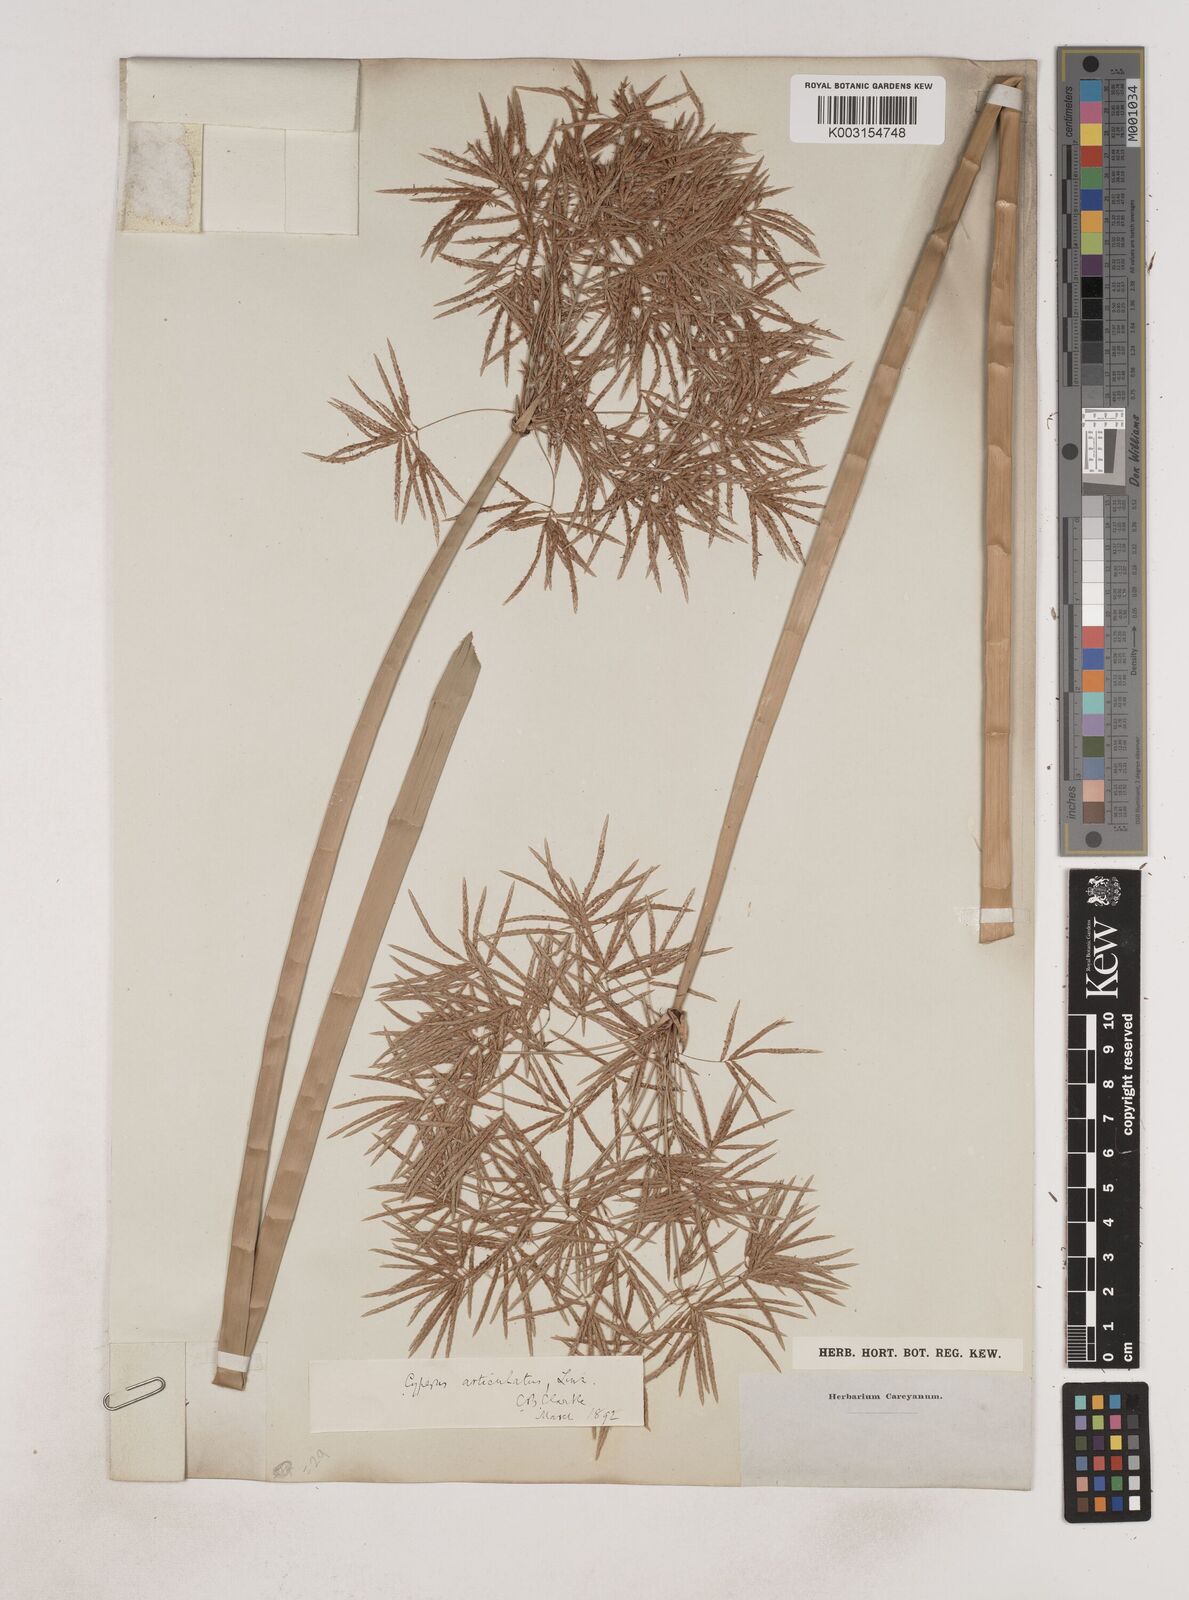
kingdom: Plantae
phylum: Tracheophyta
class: Liliopsida
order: Poales
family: Cyperaceae
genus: Cyperus
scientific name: Cyperus articulatus
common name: Jointed flatsedge
